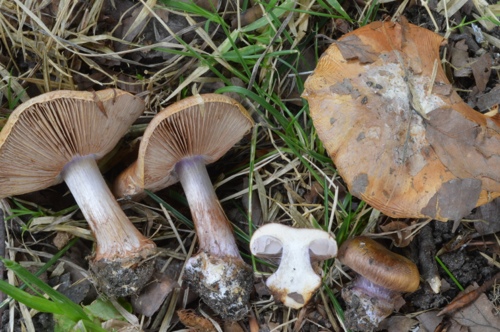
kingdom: Fungi
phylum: Basidiomycota
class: Agaricomycetes
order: Agaricales
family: Cortinariaceae
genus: Calonarius
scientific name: Calonarius vesterholtii
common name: Vesterholts slørhat
